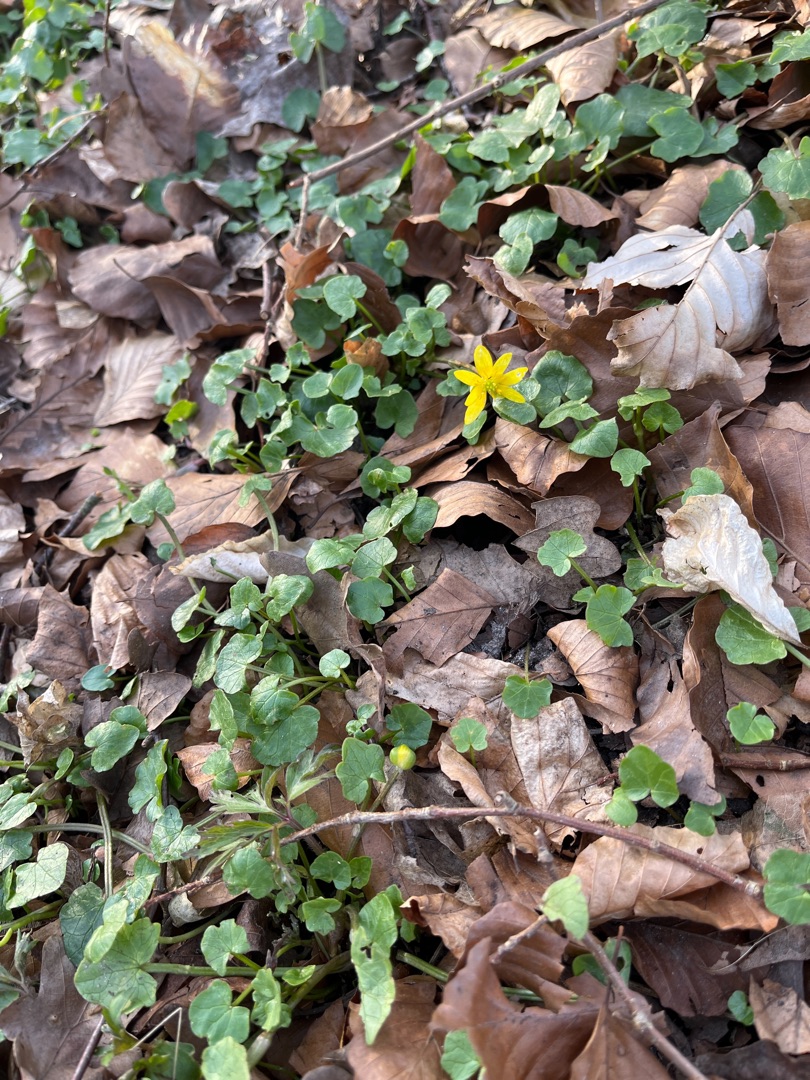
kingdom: Plantae
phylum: Tracheophyta
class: Magnoliopsida
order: Ranunculales
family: Ranunculaceae
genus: Ficaria
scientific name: Ficaria verna
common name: Vorterod
